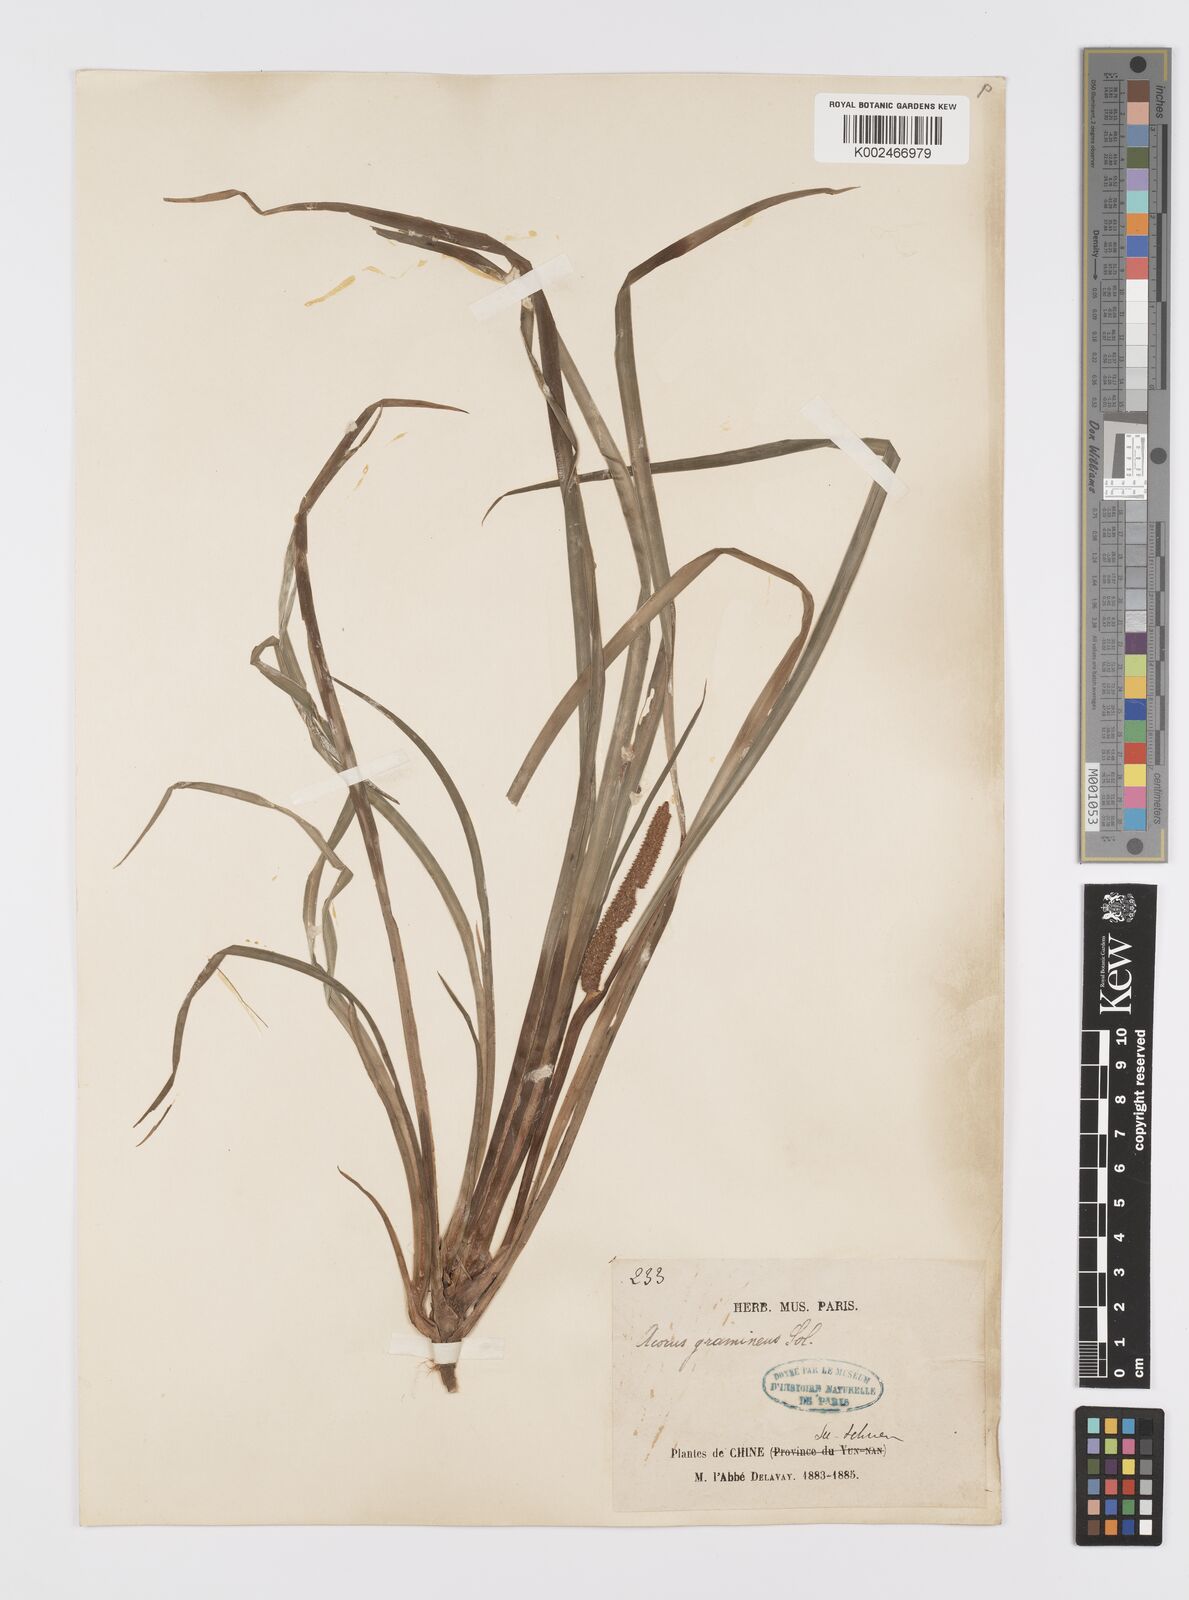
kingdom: Plantae
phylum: Tracheophyta
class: Liliopsida
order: Acorales
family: Acoraceae
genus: Acorus
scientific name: Acorus gramineus
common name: Slender sweet-flag
